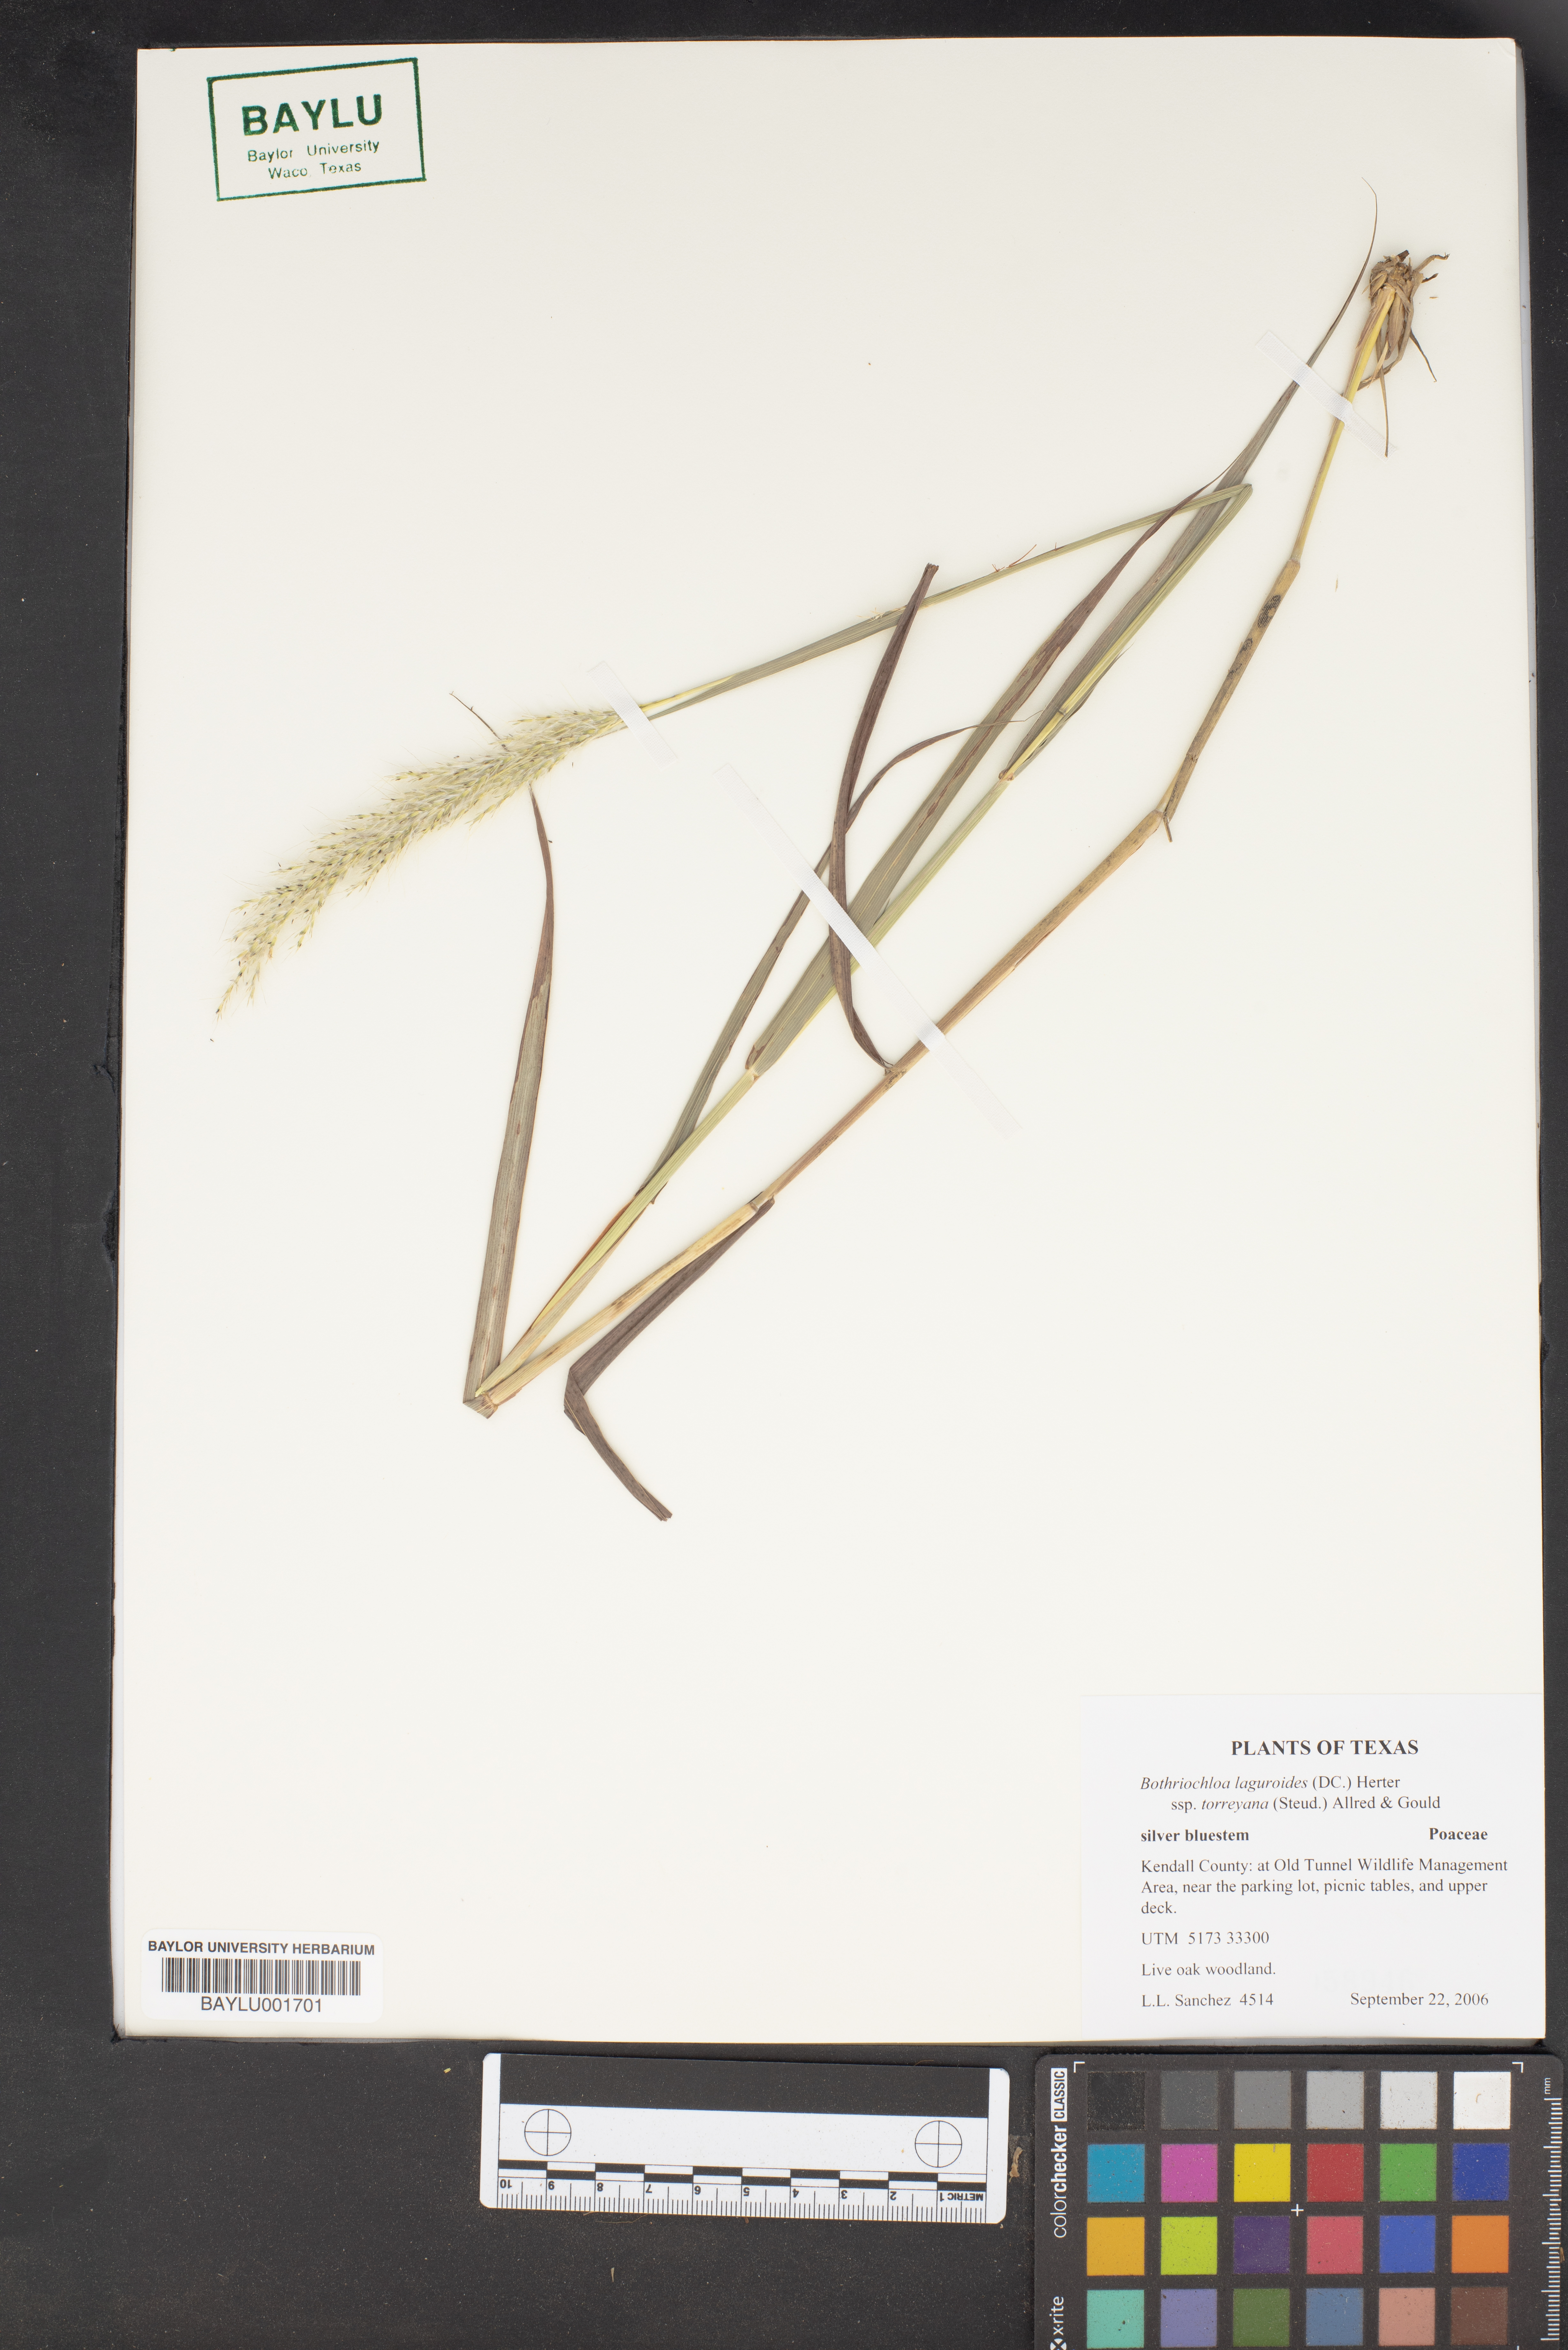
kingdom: Plantae
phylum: Tracheophyta
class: Liliopsida
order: Poales
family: Poaceae
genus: Bothriochloa
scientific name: Bothriochloa torreyana
